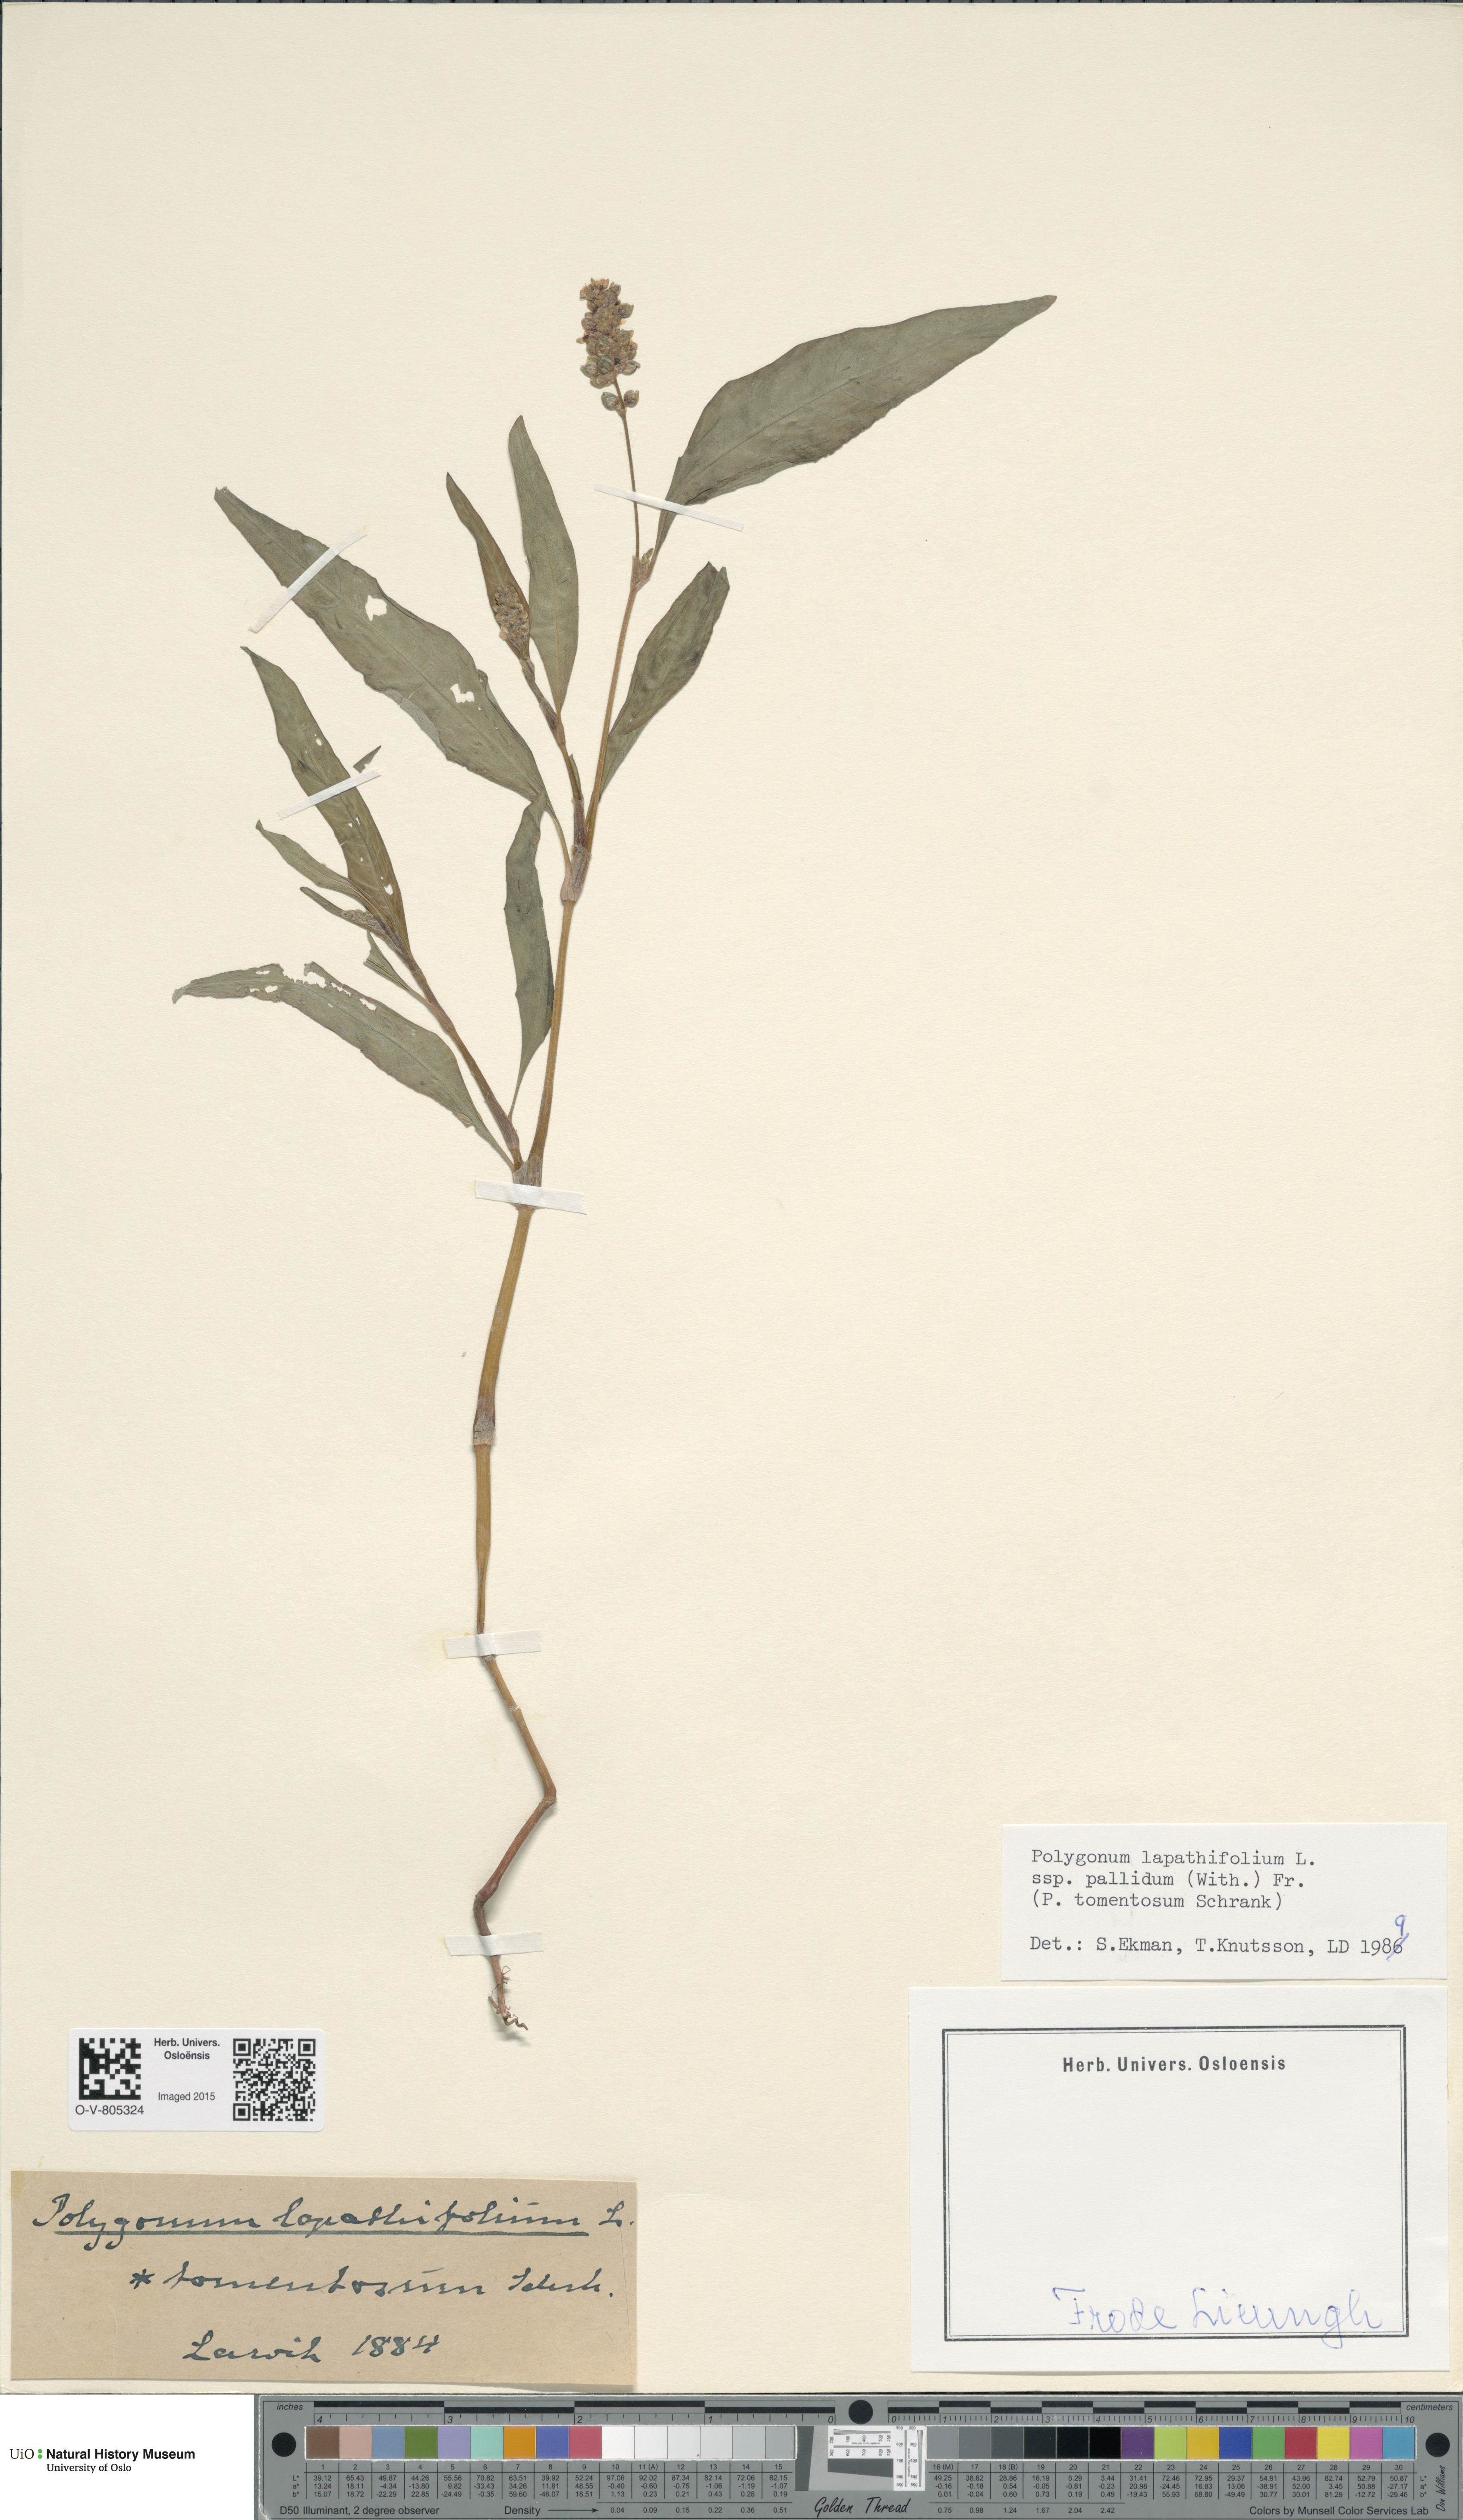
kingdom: Plantae
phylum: Tracheophyta
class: Magnoliopsida
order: Caryophyllales
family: Polygonaceae
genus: Persicaria
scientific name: Persicaria lapathifolia
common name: Curlytop knotweed
